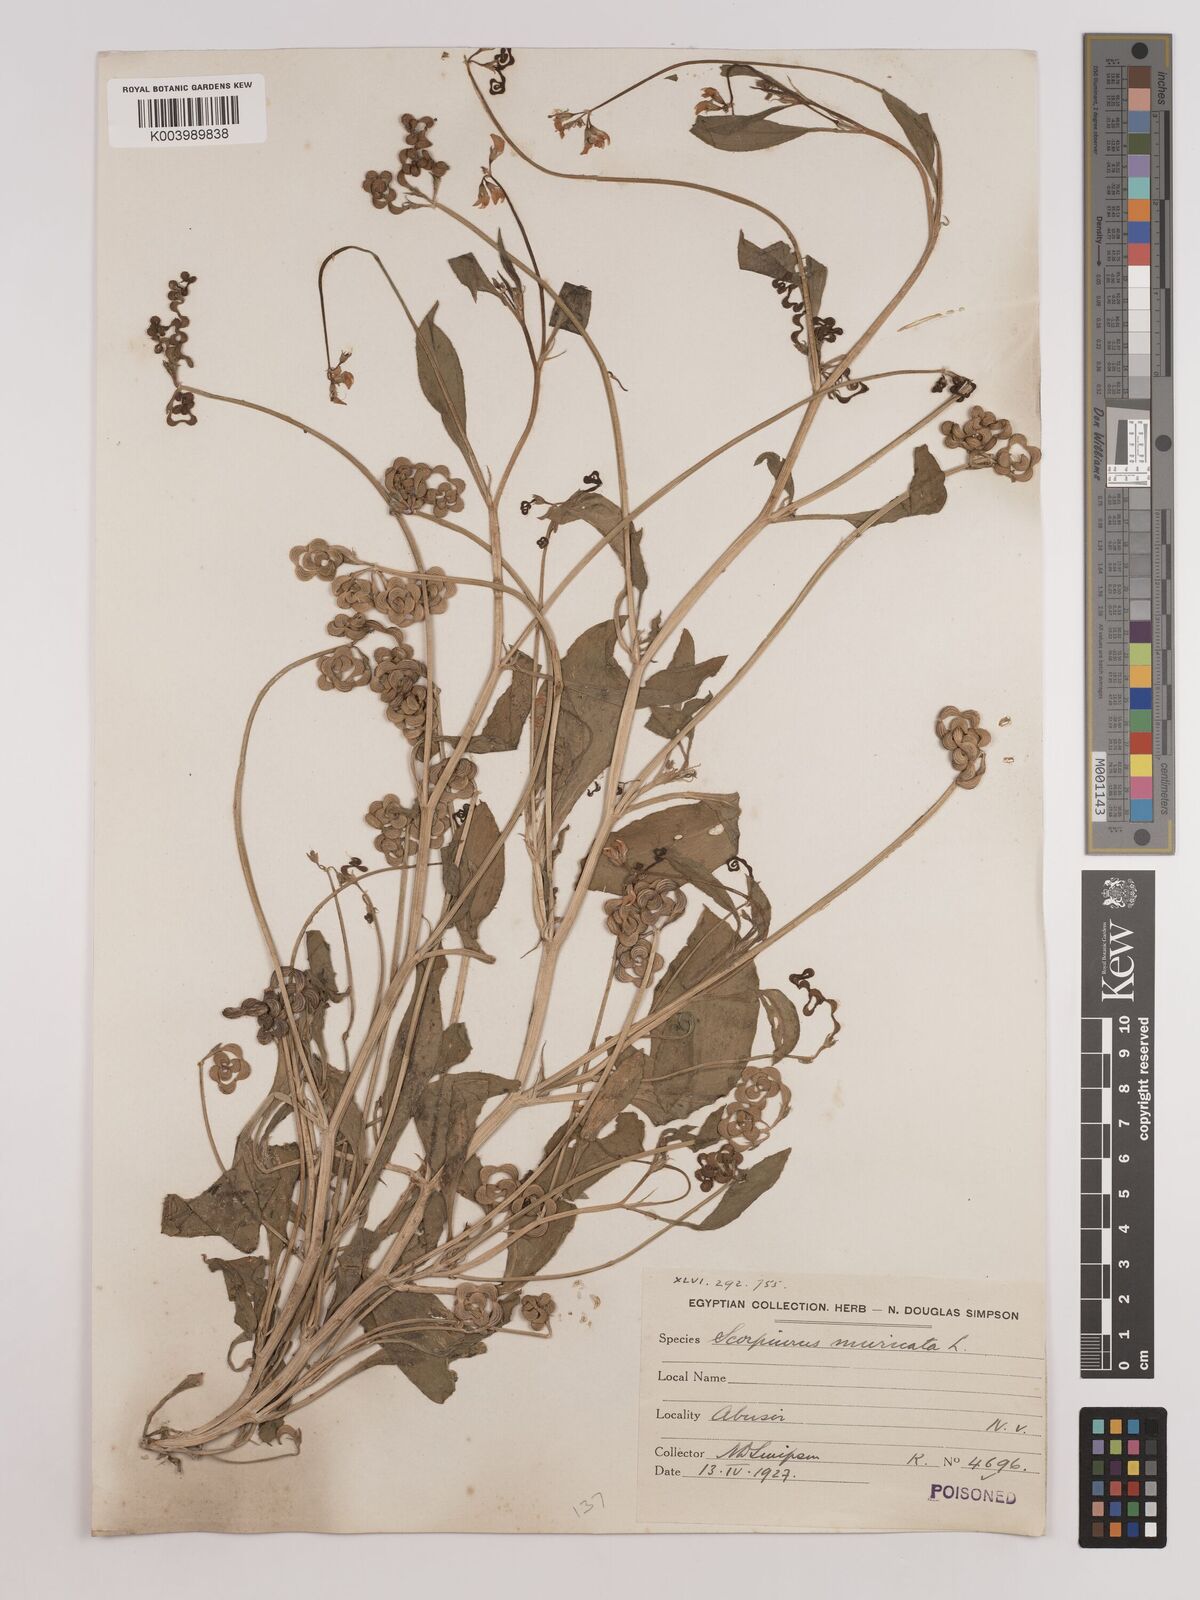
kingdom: Plantae
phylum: Tracheophyta
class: Magnoliopsida
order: Fabales
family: Fabaceae
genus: Scorpiurus
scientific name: Scorpiurus muricatus
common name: Caterpillar-plant
